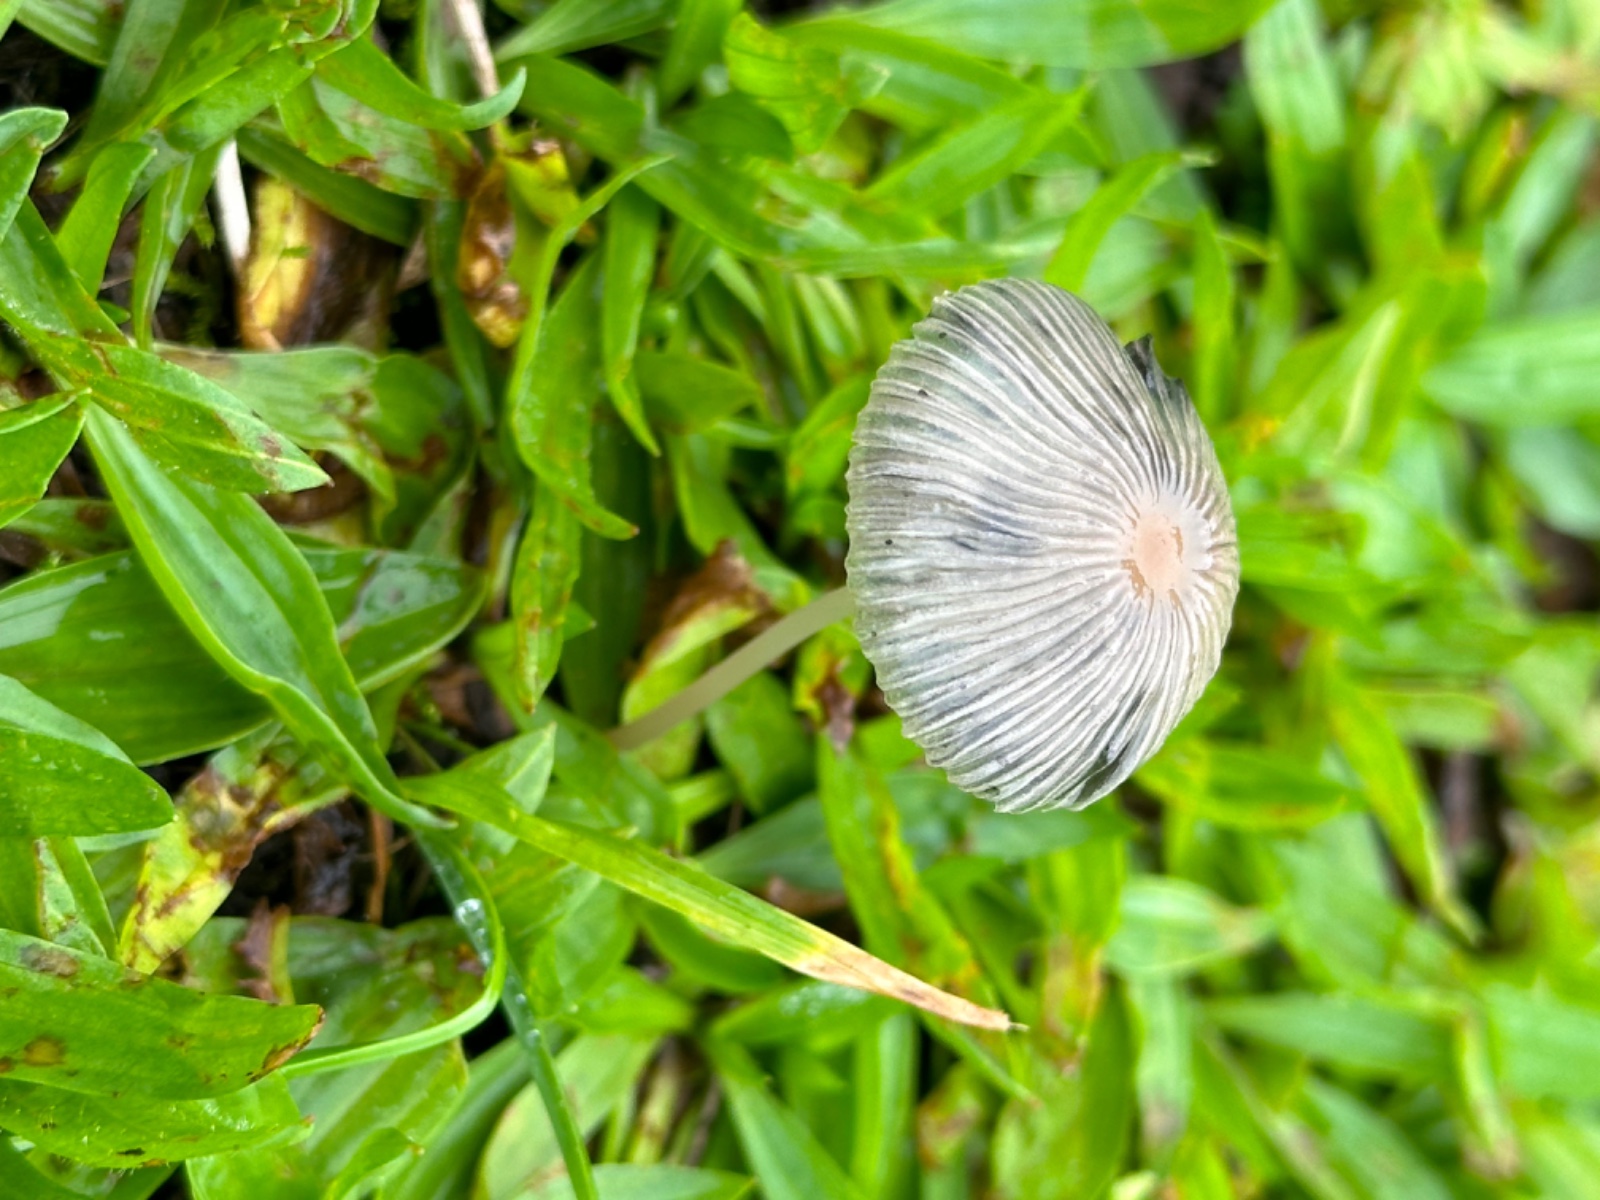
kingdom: Fungi
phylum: Basidiomycota
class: Agaricomycetes
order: Agaricales
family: Psathyrellaceae
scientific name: Psathyrellaceae
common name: mørkhatfamilien
